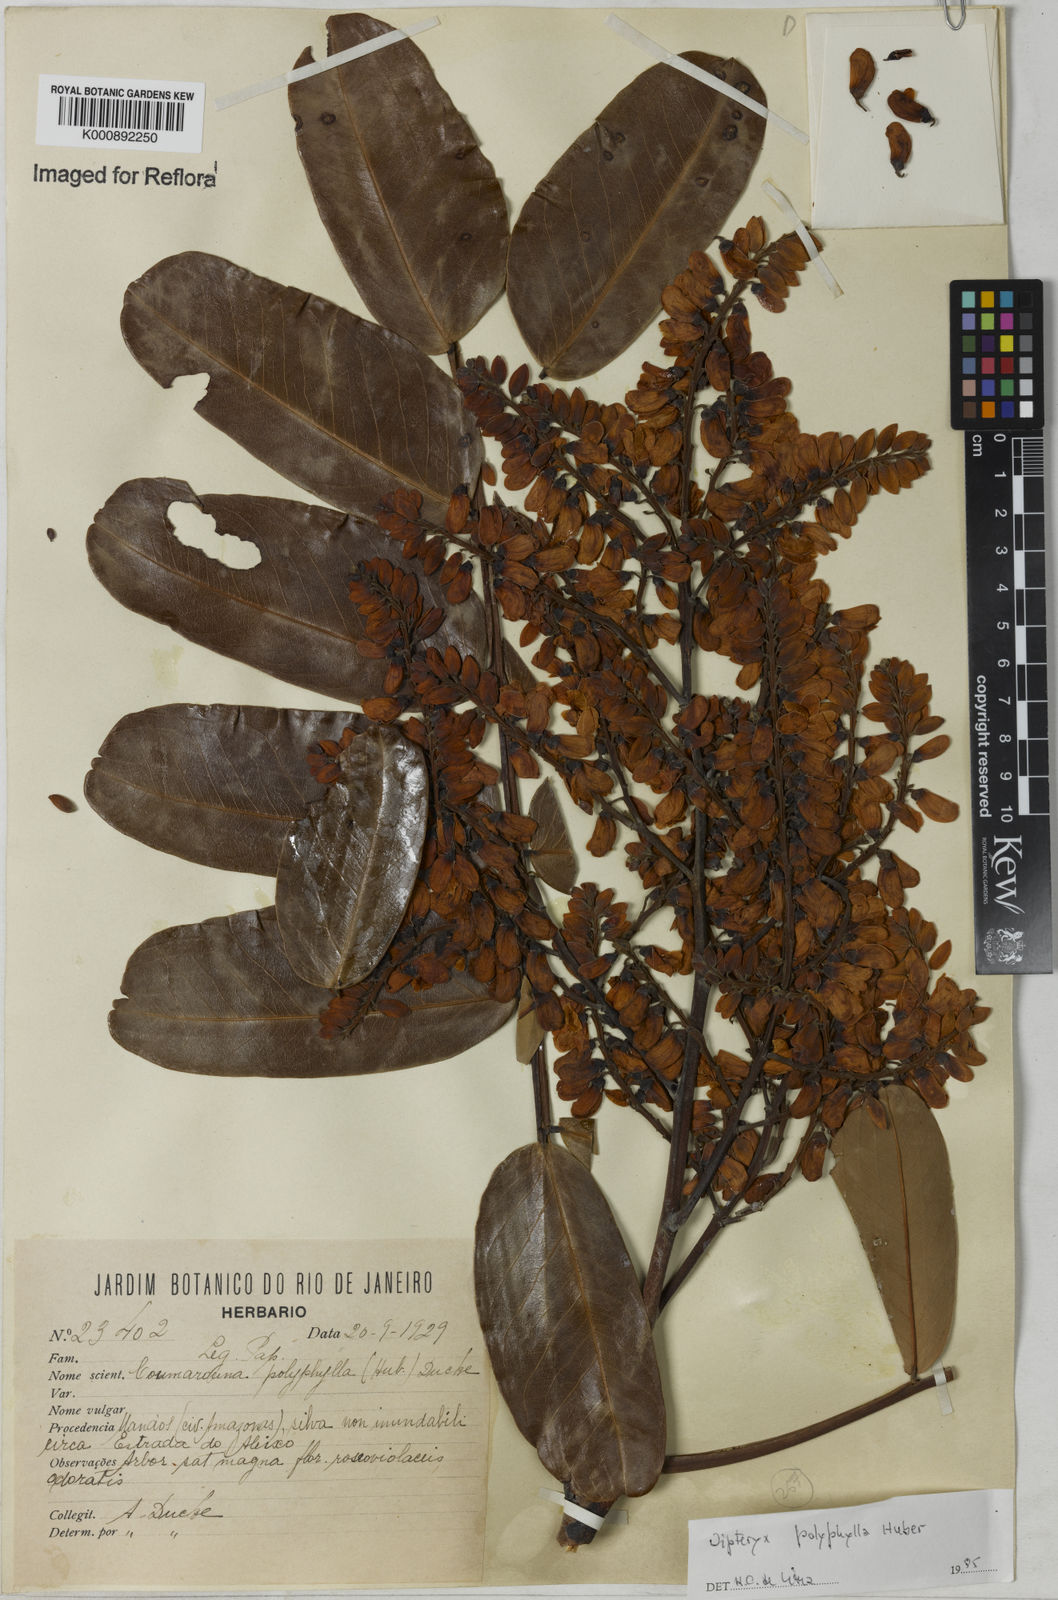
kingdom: Plantae
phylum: Tracheophyta
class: Magnoliopsida
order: Fabales
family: Fabaceae
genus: Dipteryx
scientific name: Dipteryx polyphylla
